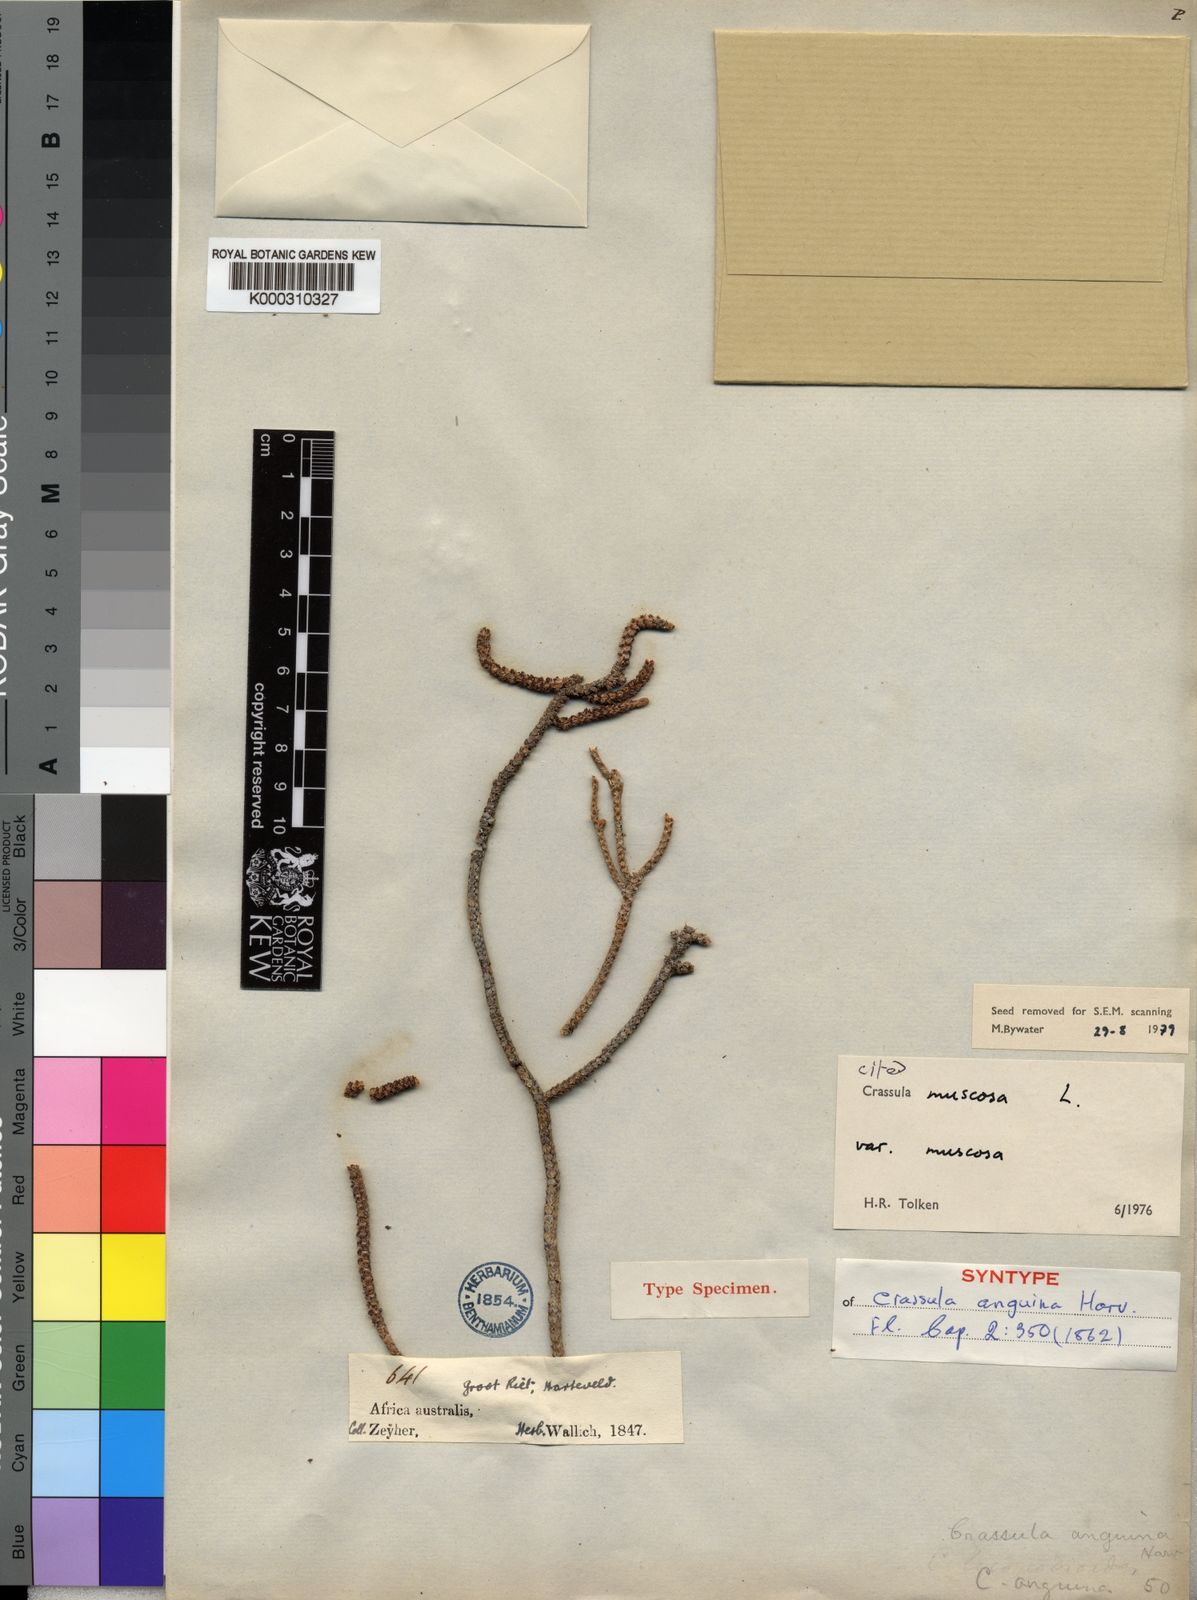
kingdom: Plantae
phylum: Tracheophyta
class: Magnoliopsida
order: Saxifragales
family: Crassulaceae
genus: Crassula
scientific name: Crassula muscosa
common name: Toy-cypress
